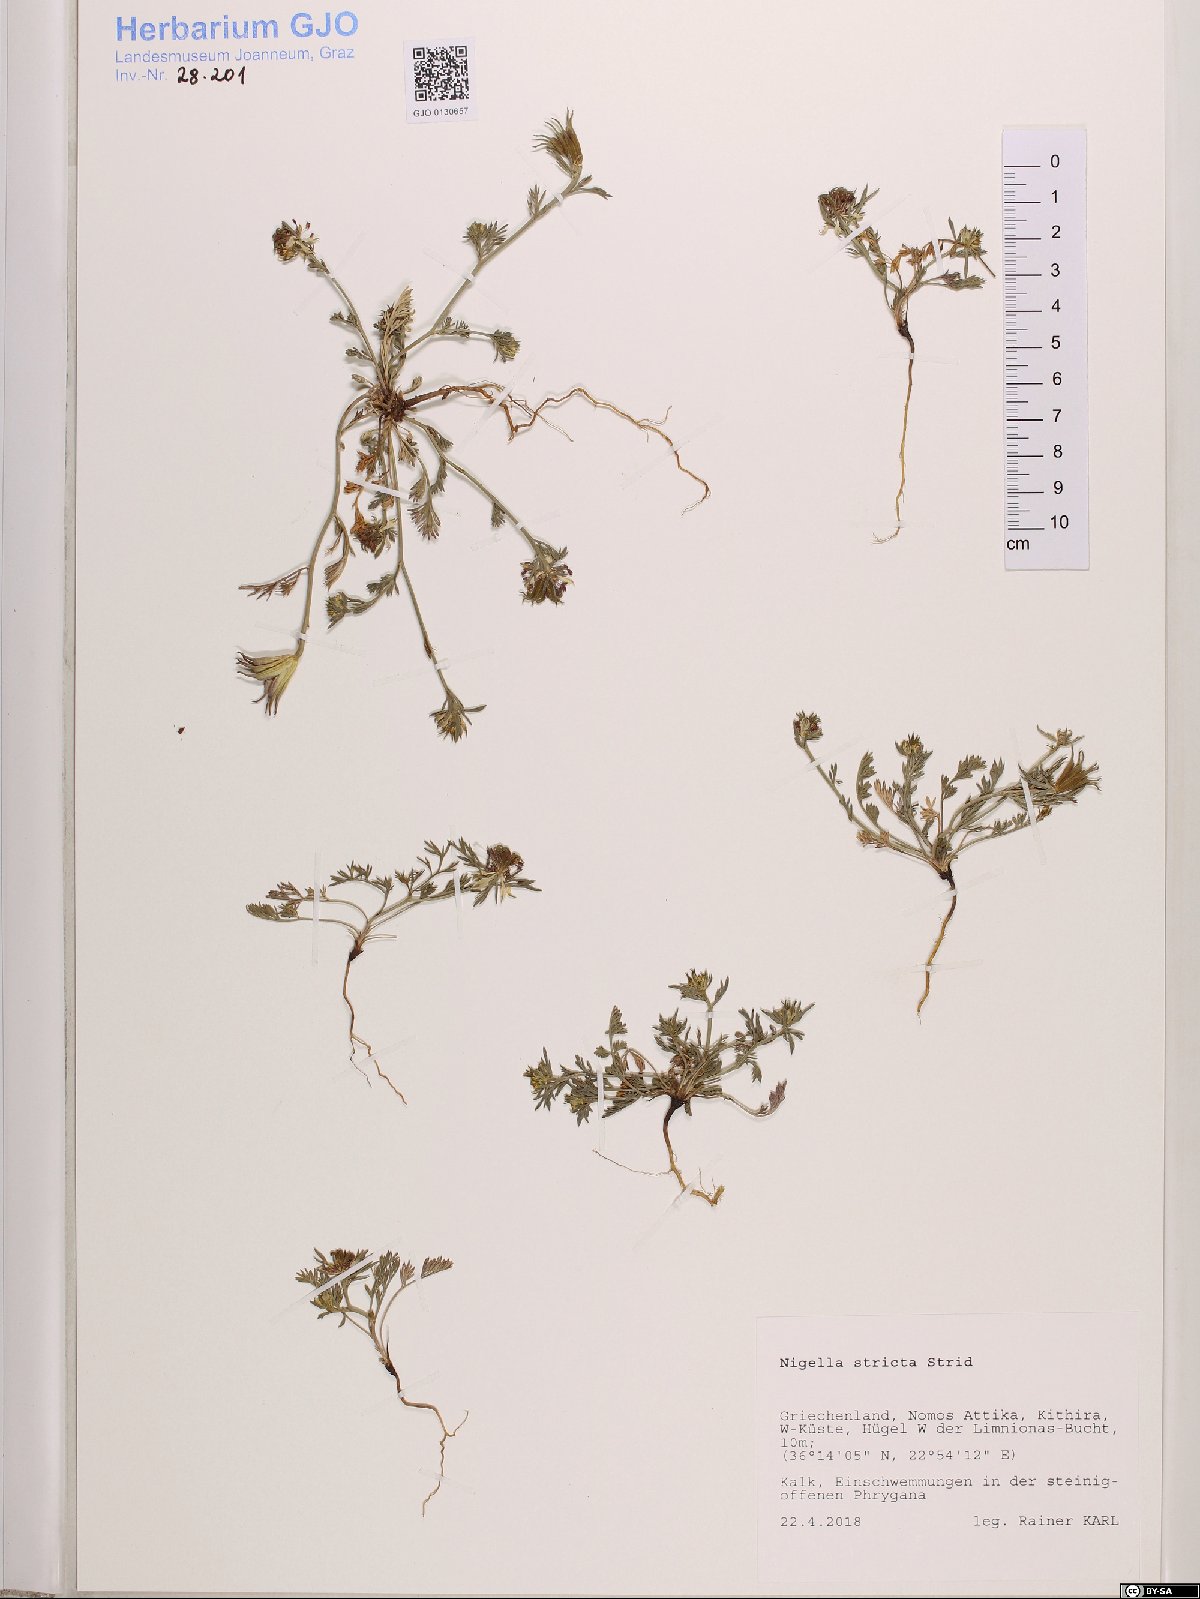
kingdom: Plantae
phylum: Tracheophyta
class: Magnoliopsida
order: Ranunculales
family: Ranunculaceae
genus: Nigella
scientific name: Nigella stricta
